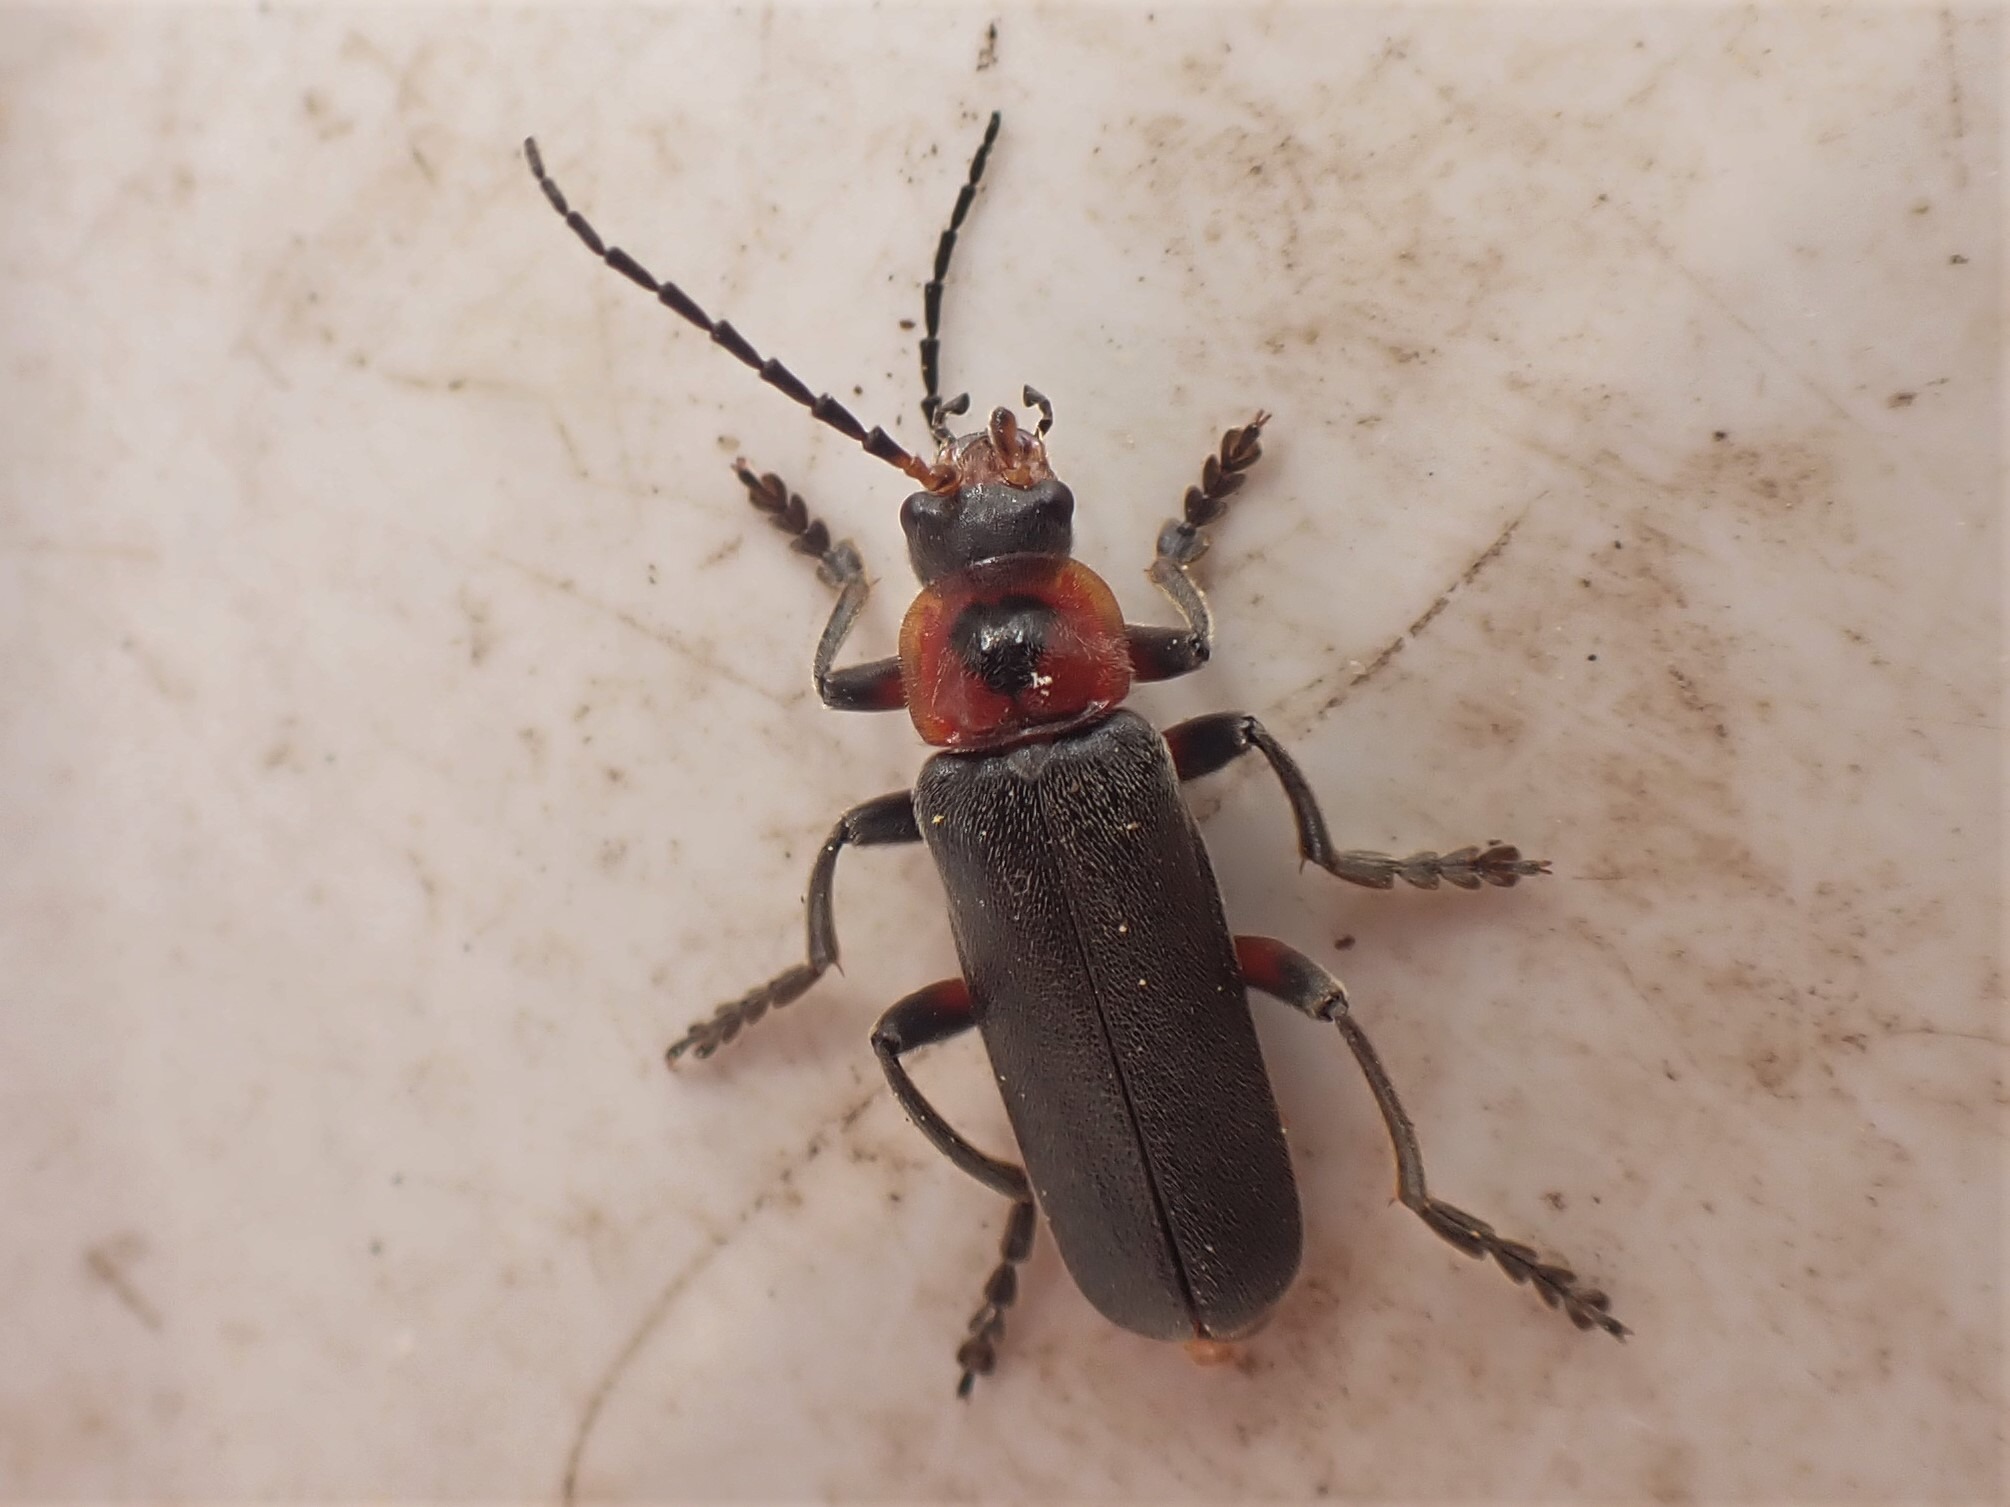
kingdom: Animalia
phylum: Arthropoda
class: Insecta
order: Coleoptera
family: Cantharidae
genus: Cantharis
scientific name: Cantharis rustica
